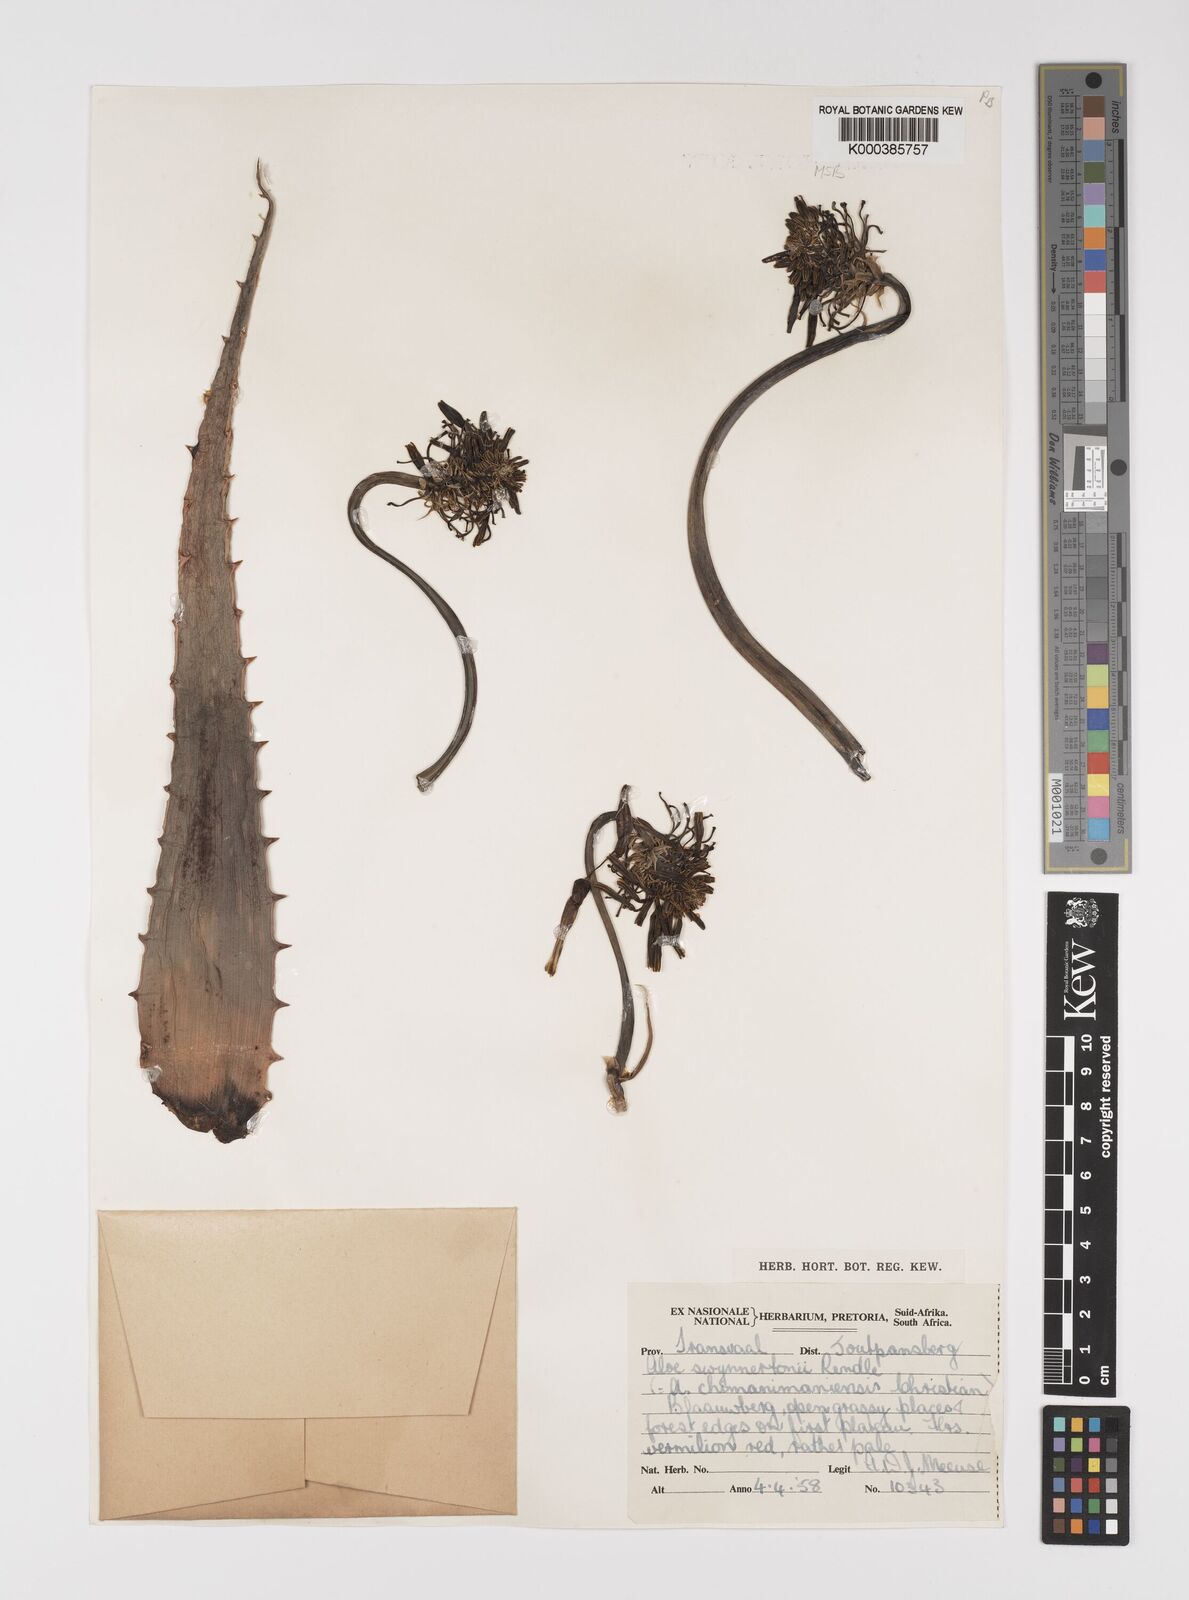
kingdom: Plantae
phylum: Tracheophyta
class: Liliopsida
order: Asparagales
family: Asphodelaceae
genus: Aloe
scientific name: Aloe swynnertonii
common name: Swynnerton's aloe
